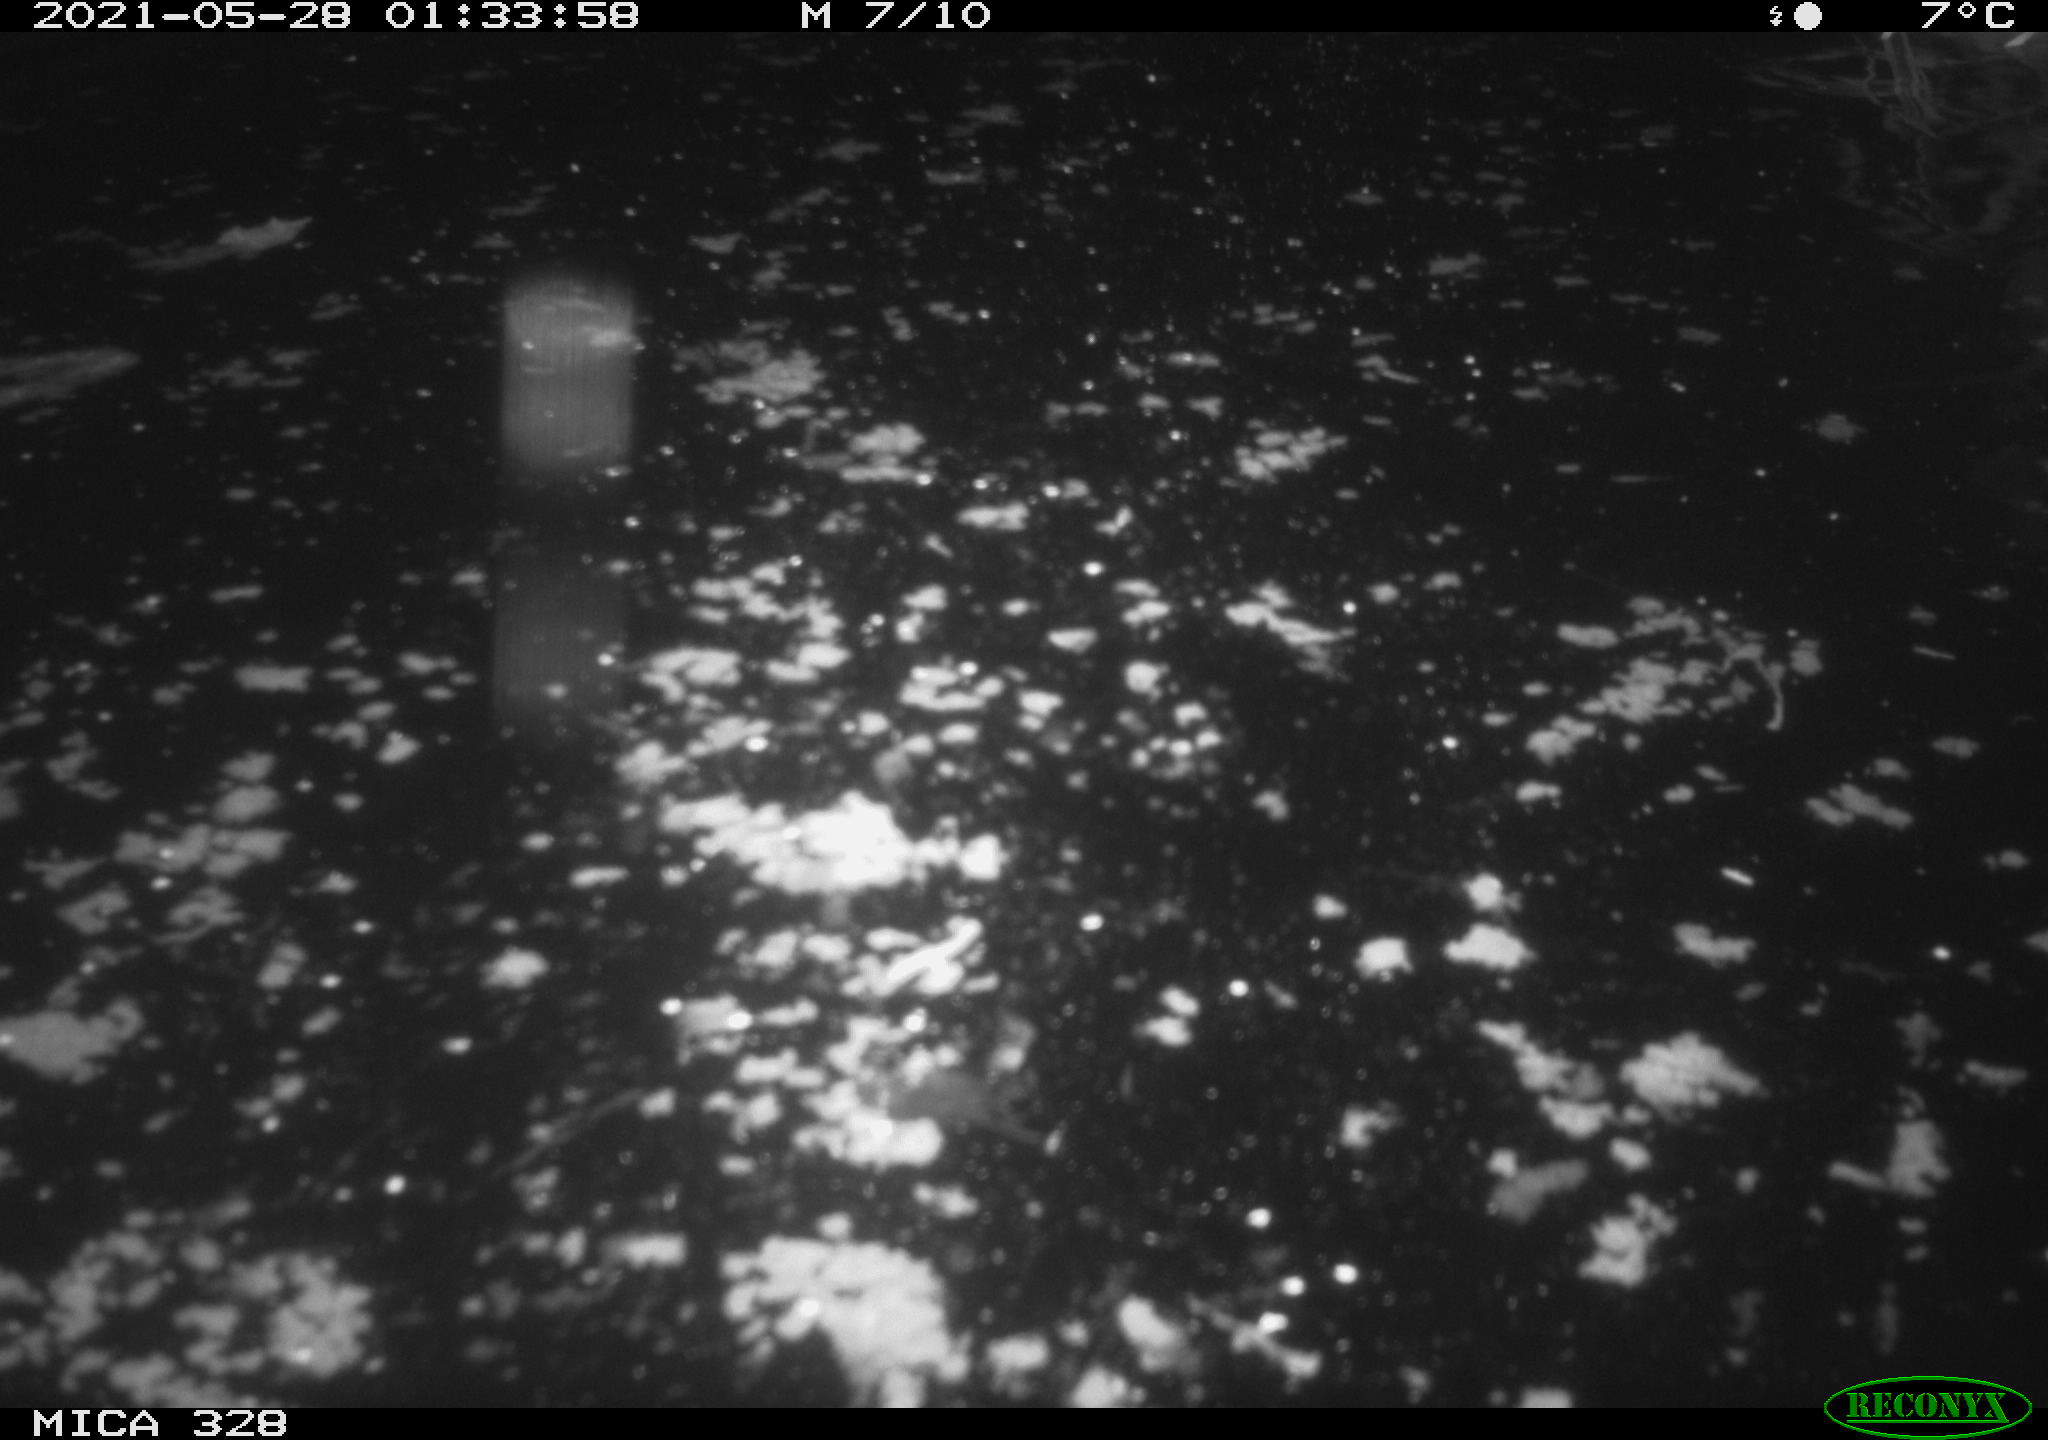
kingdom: Animalia
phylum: Chordata
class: Mammalia
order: Rodentia
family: Cricetidae
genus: Ondatra
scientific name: Ondatra zibethicus
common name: Muskrat
